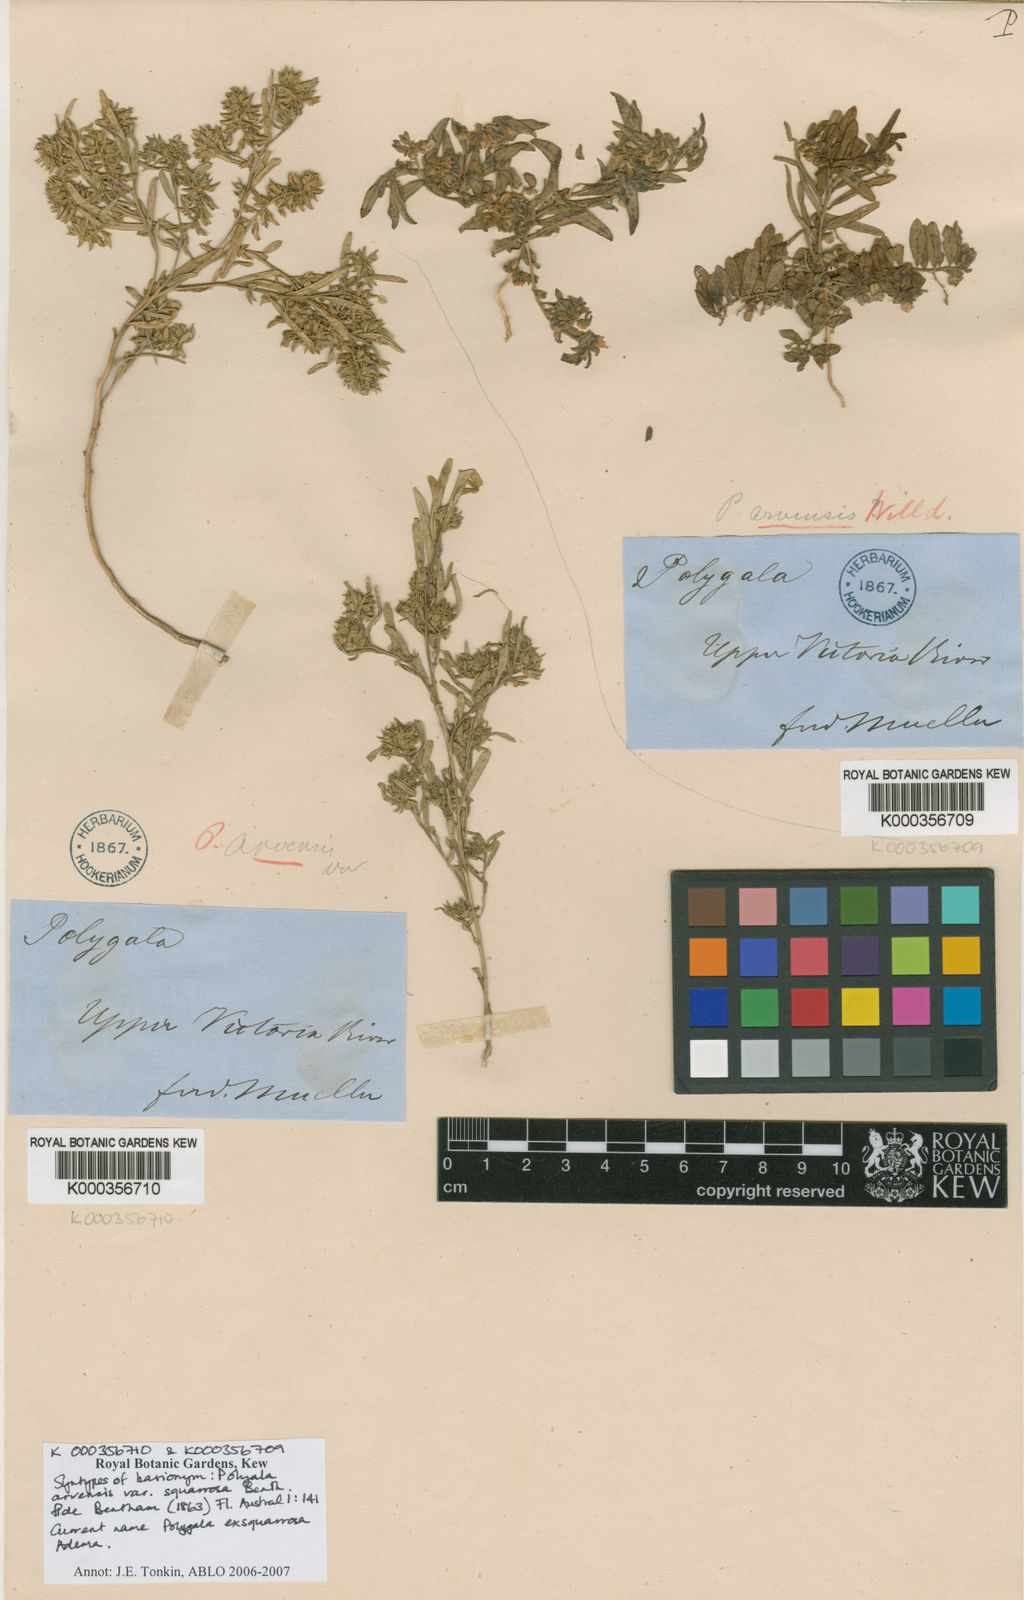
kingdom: Plantae
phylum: Tracheophyta
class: Magnoliopsida
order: Fabales
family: Polygalaceae
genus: Polygala
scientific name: Polygala glomerata
